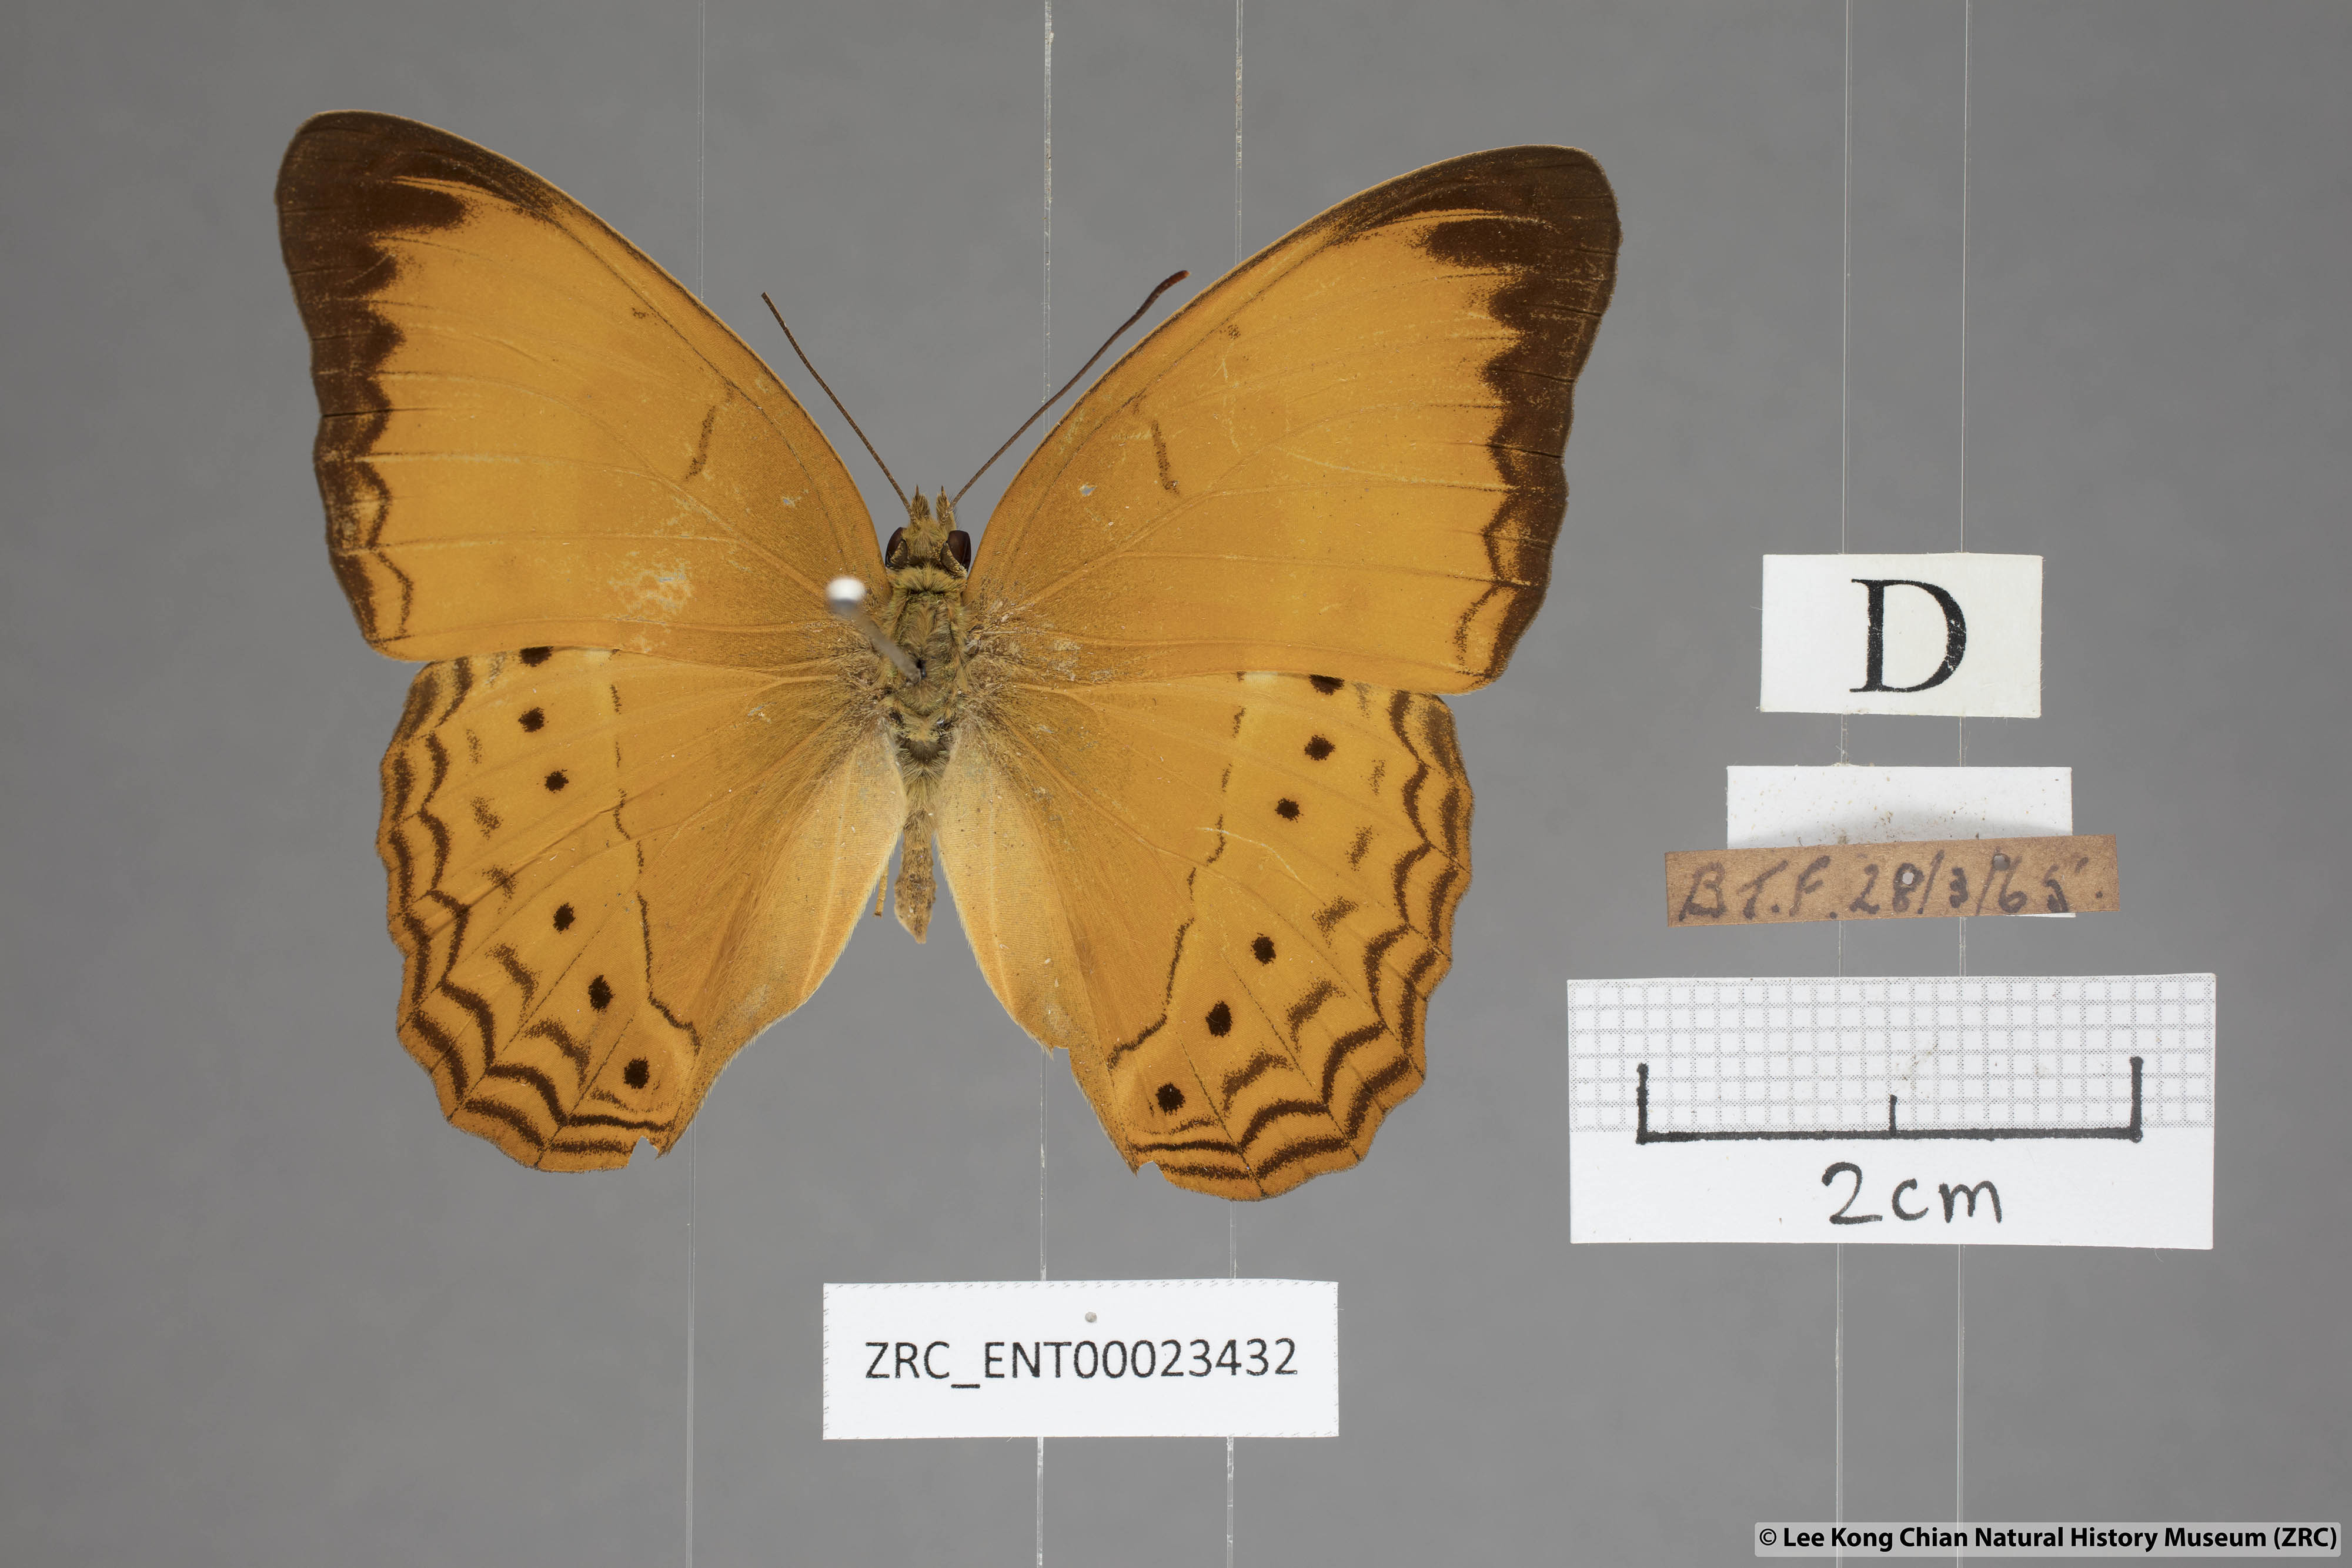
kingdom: Animalia
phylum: Arthropoda
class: Insecta
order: Lepidoptera
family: Nymphalidae
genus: Cirrochroa
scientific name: Cirrochroa malaya
